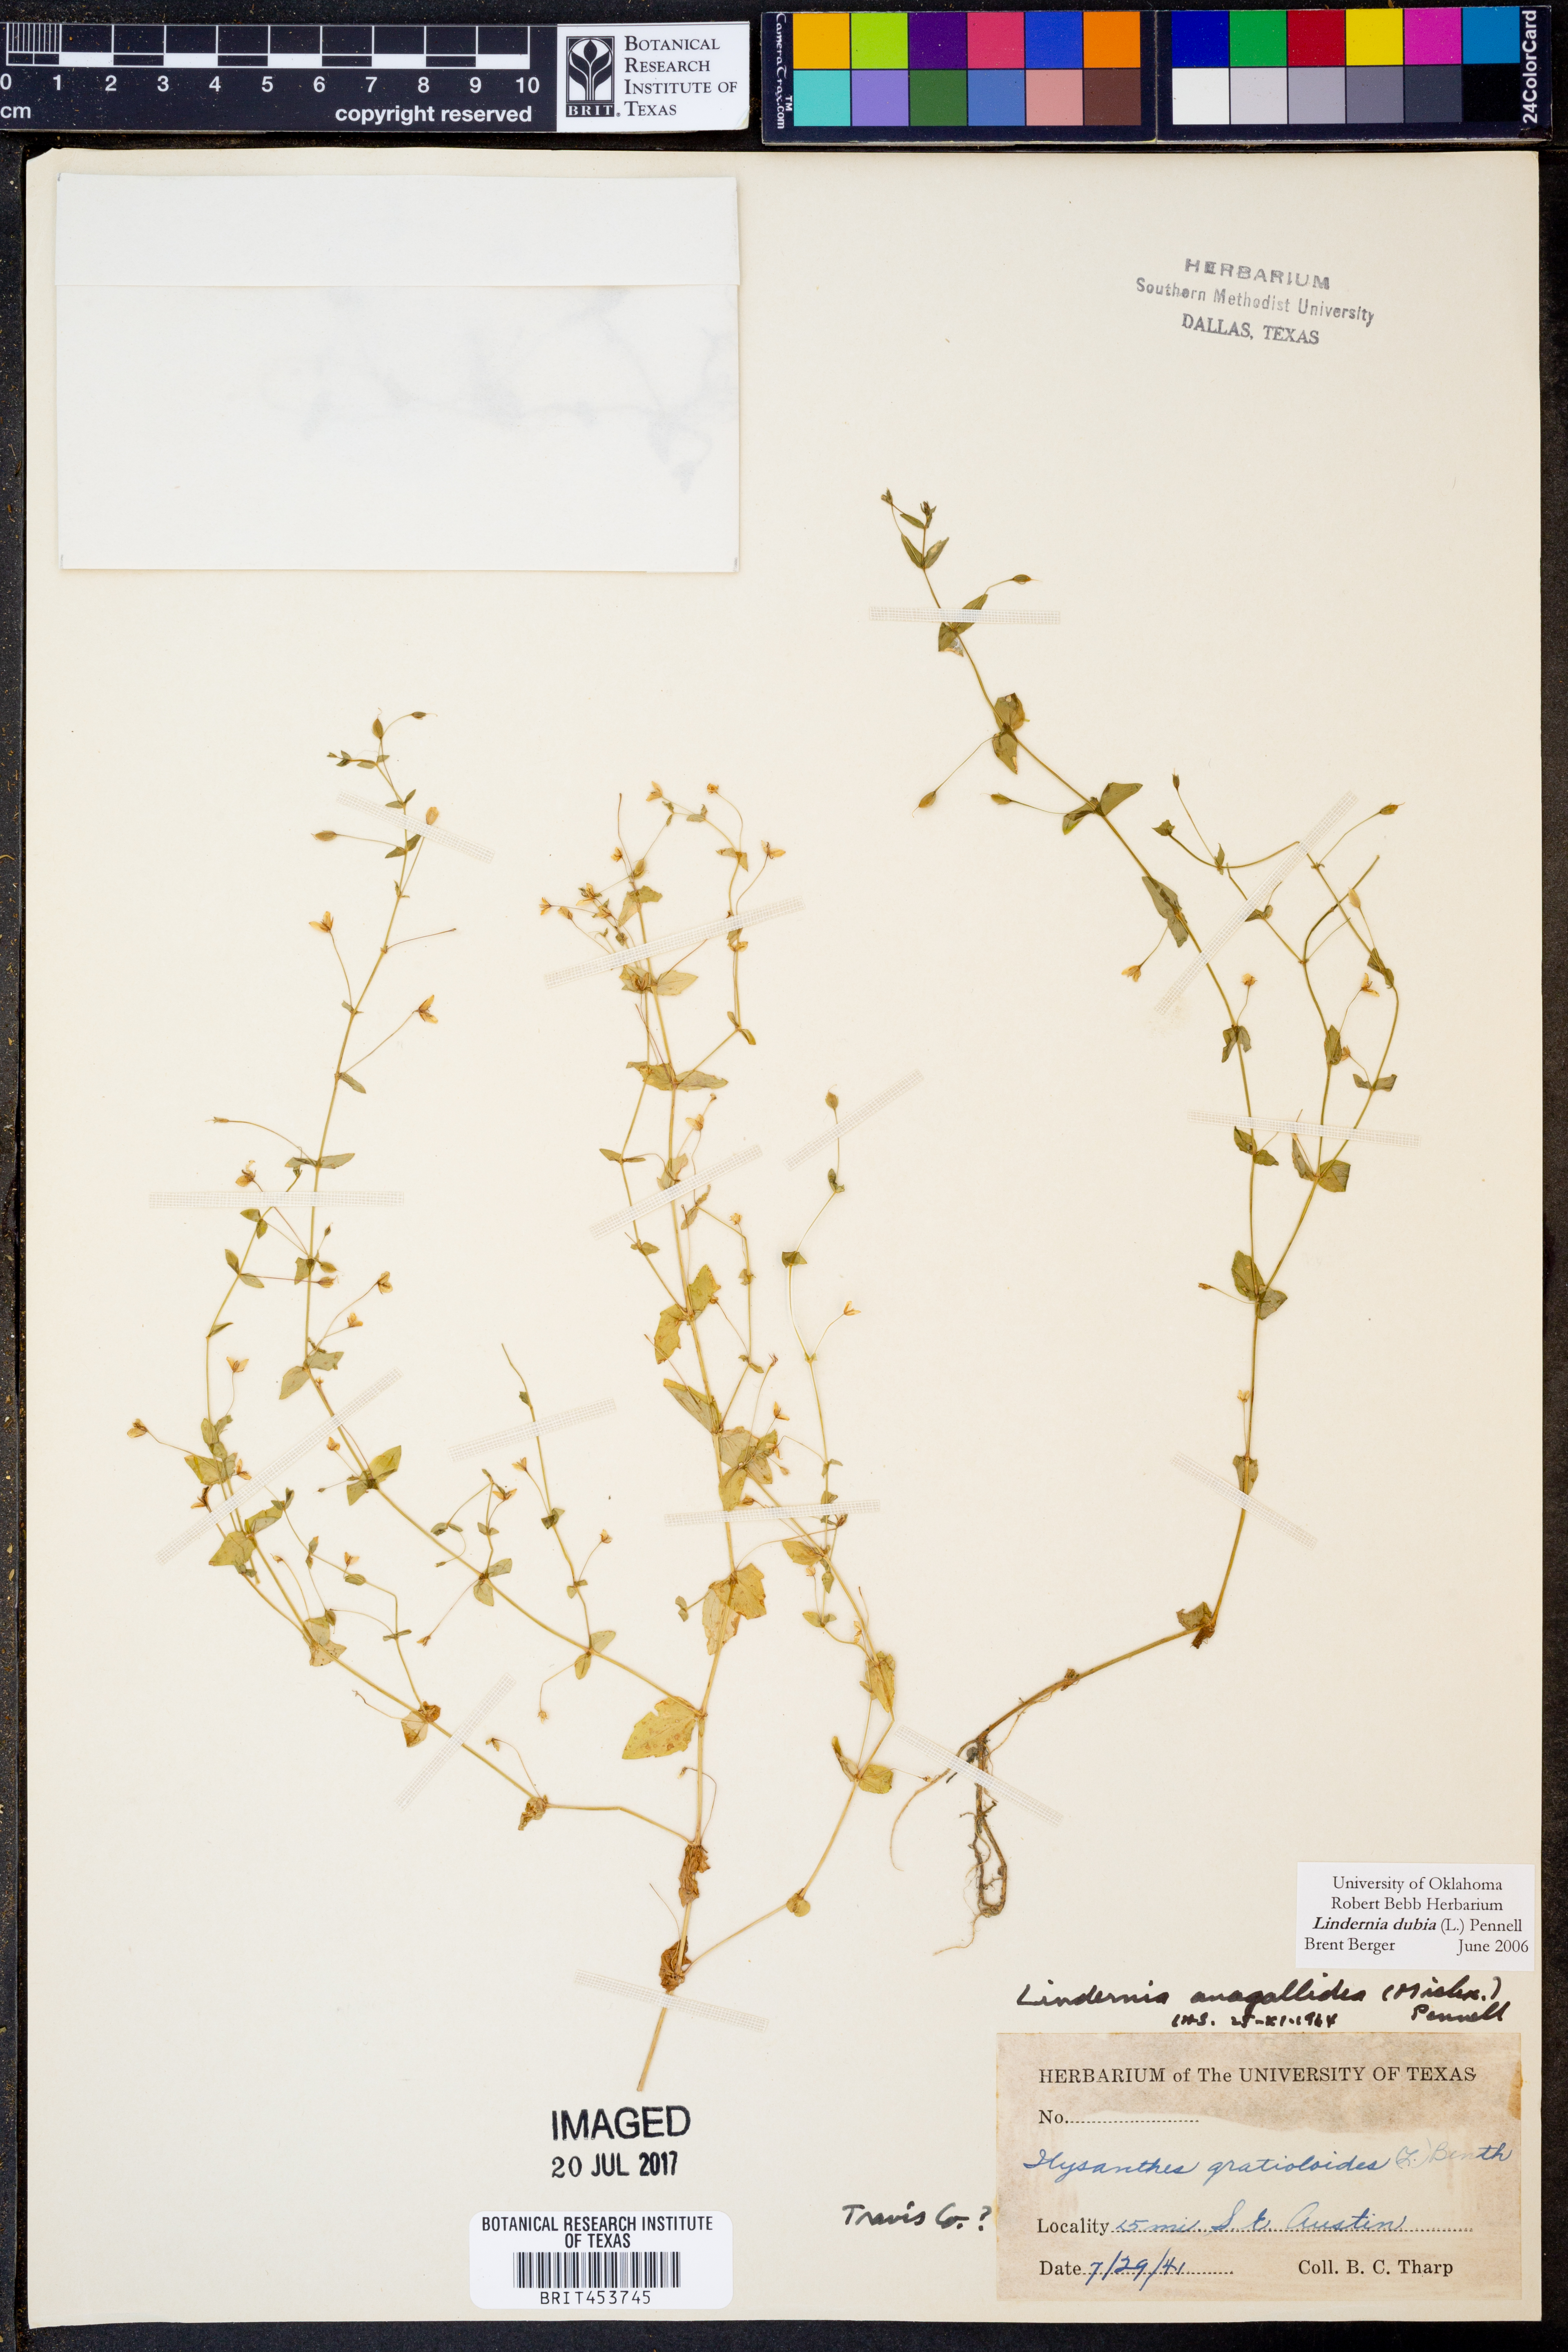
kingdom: Plantae
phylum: Tracheophyta
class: Magnoliopsida
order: Lamiales
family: Linderniaceae
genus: Lindernia
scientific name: Lindernia dubia
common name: Annual false pimpernel
